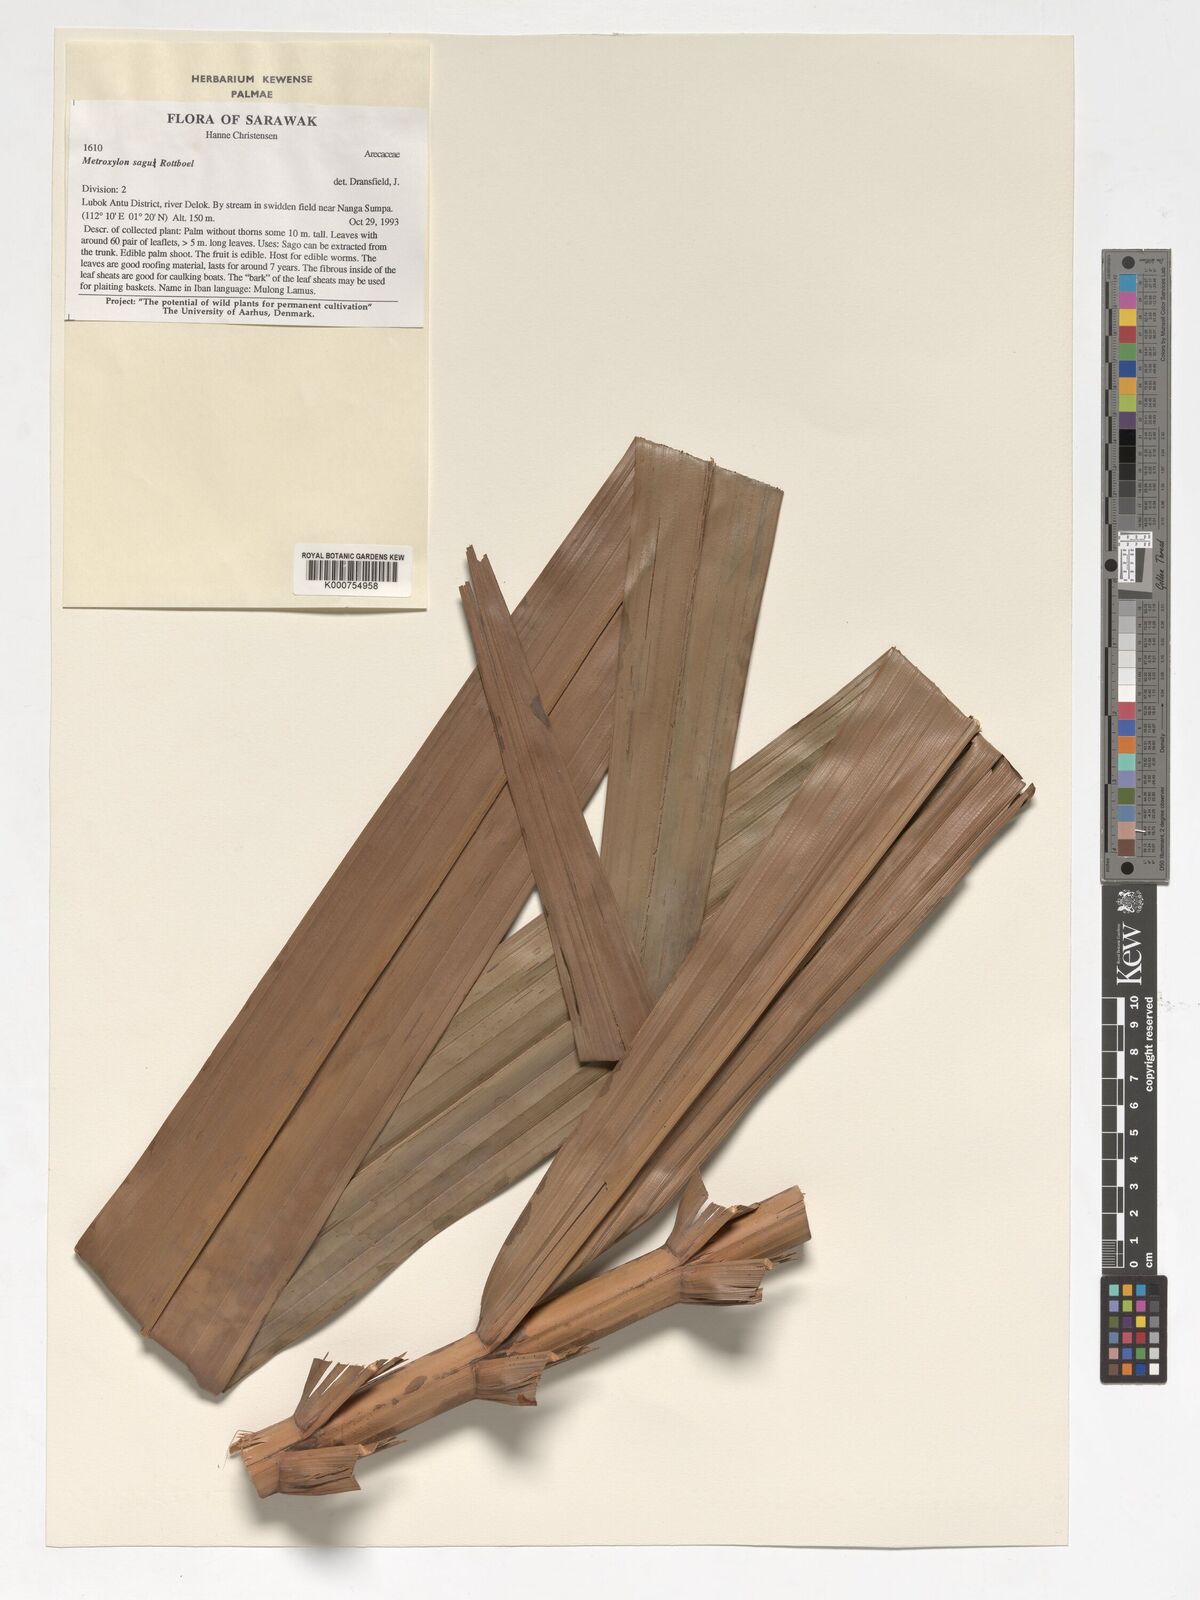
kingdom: Plantae
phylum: Tracheophyta
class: Liliopsida
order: Arecales
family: Arecaceae
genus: Metroxylon
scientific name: Metroxylon sagu
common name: Sago palm
